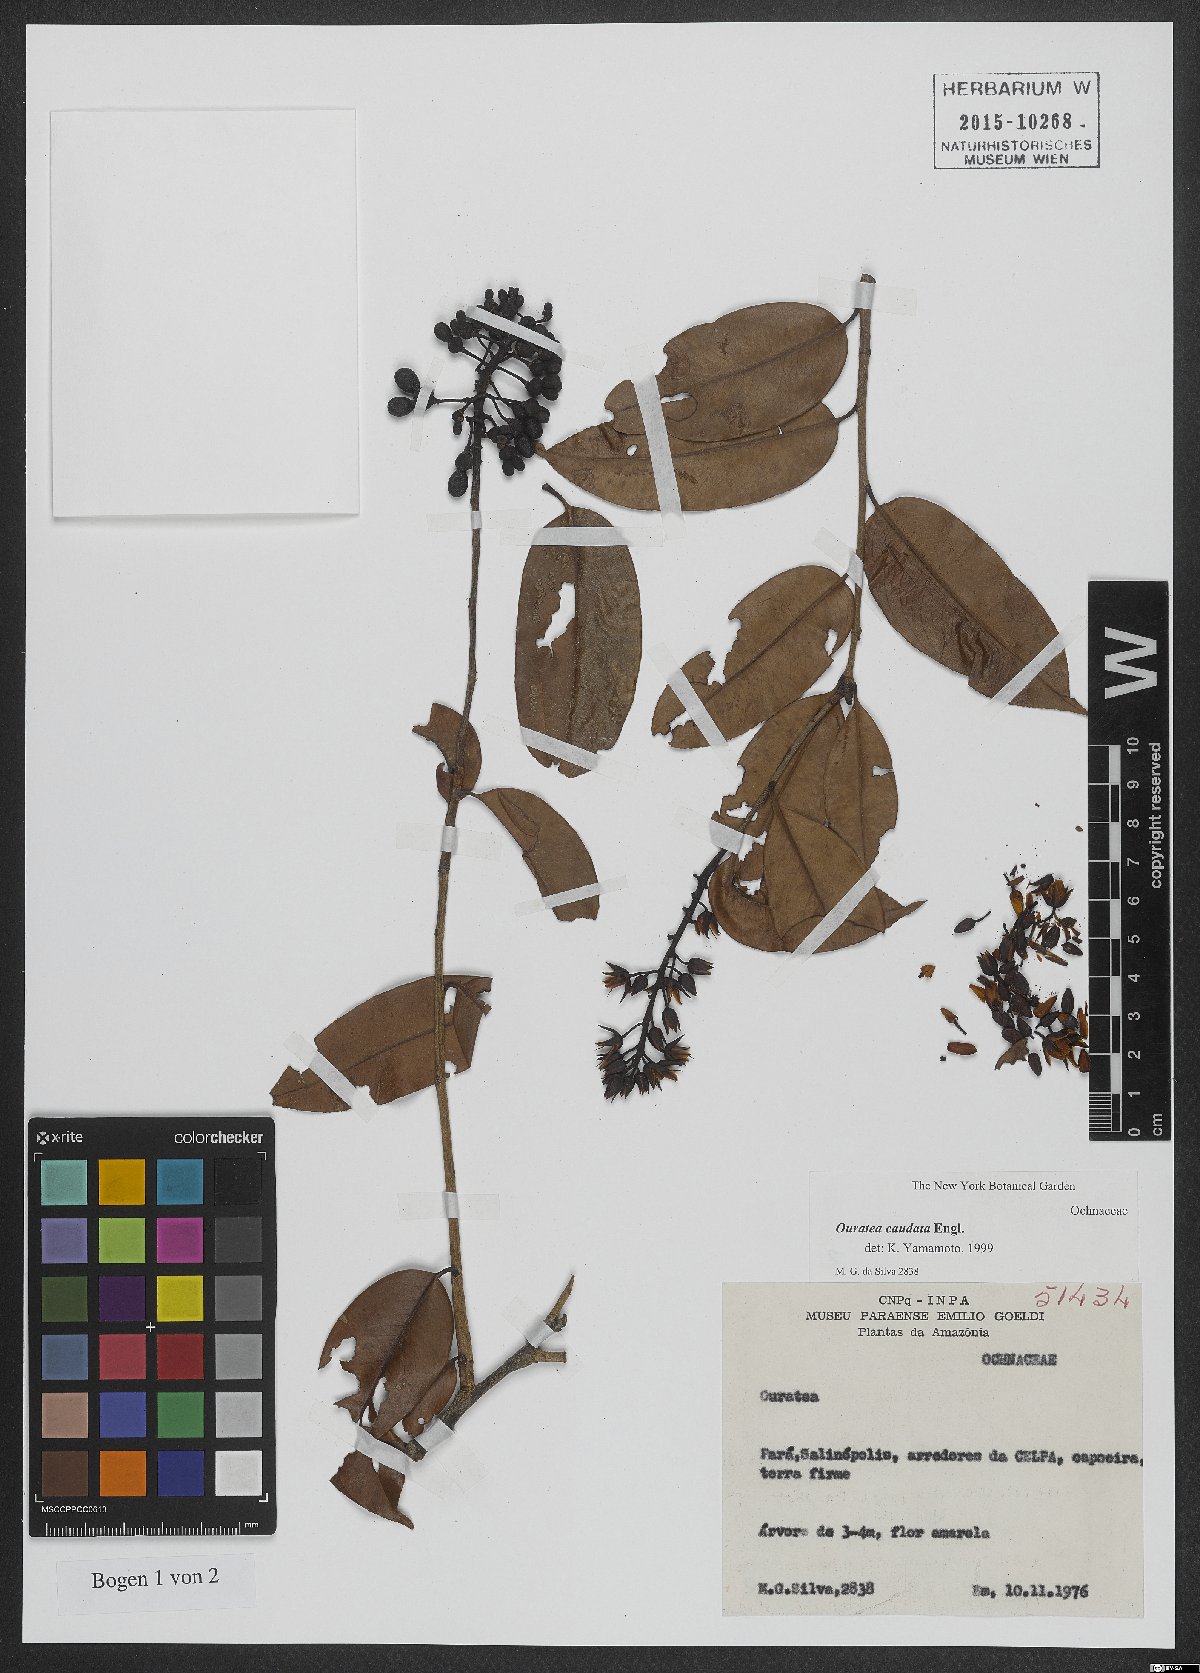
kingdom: Plantae
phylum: Tracheophyta
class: Magnoliopsida
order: Malpighiales
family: Ochnaceae
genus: Ouratea
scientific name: Ouratea caudata
